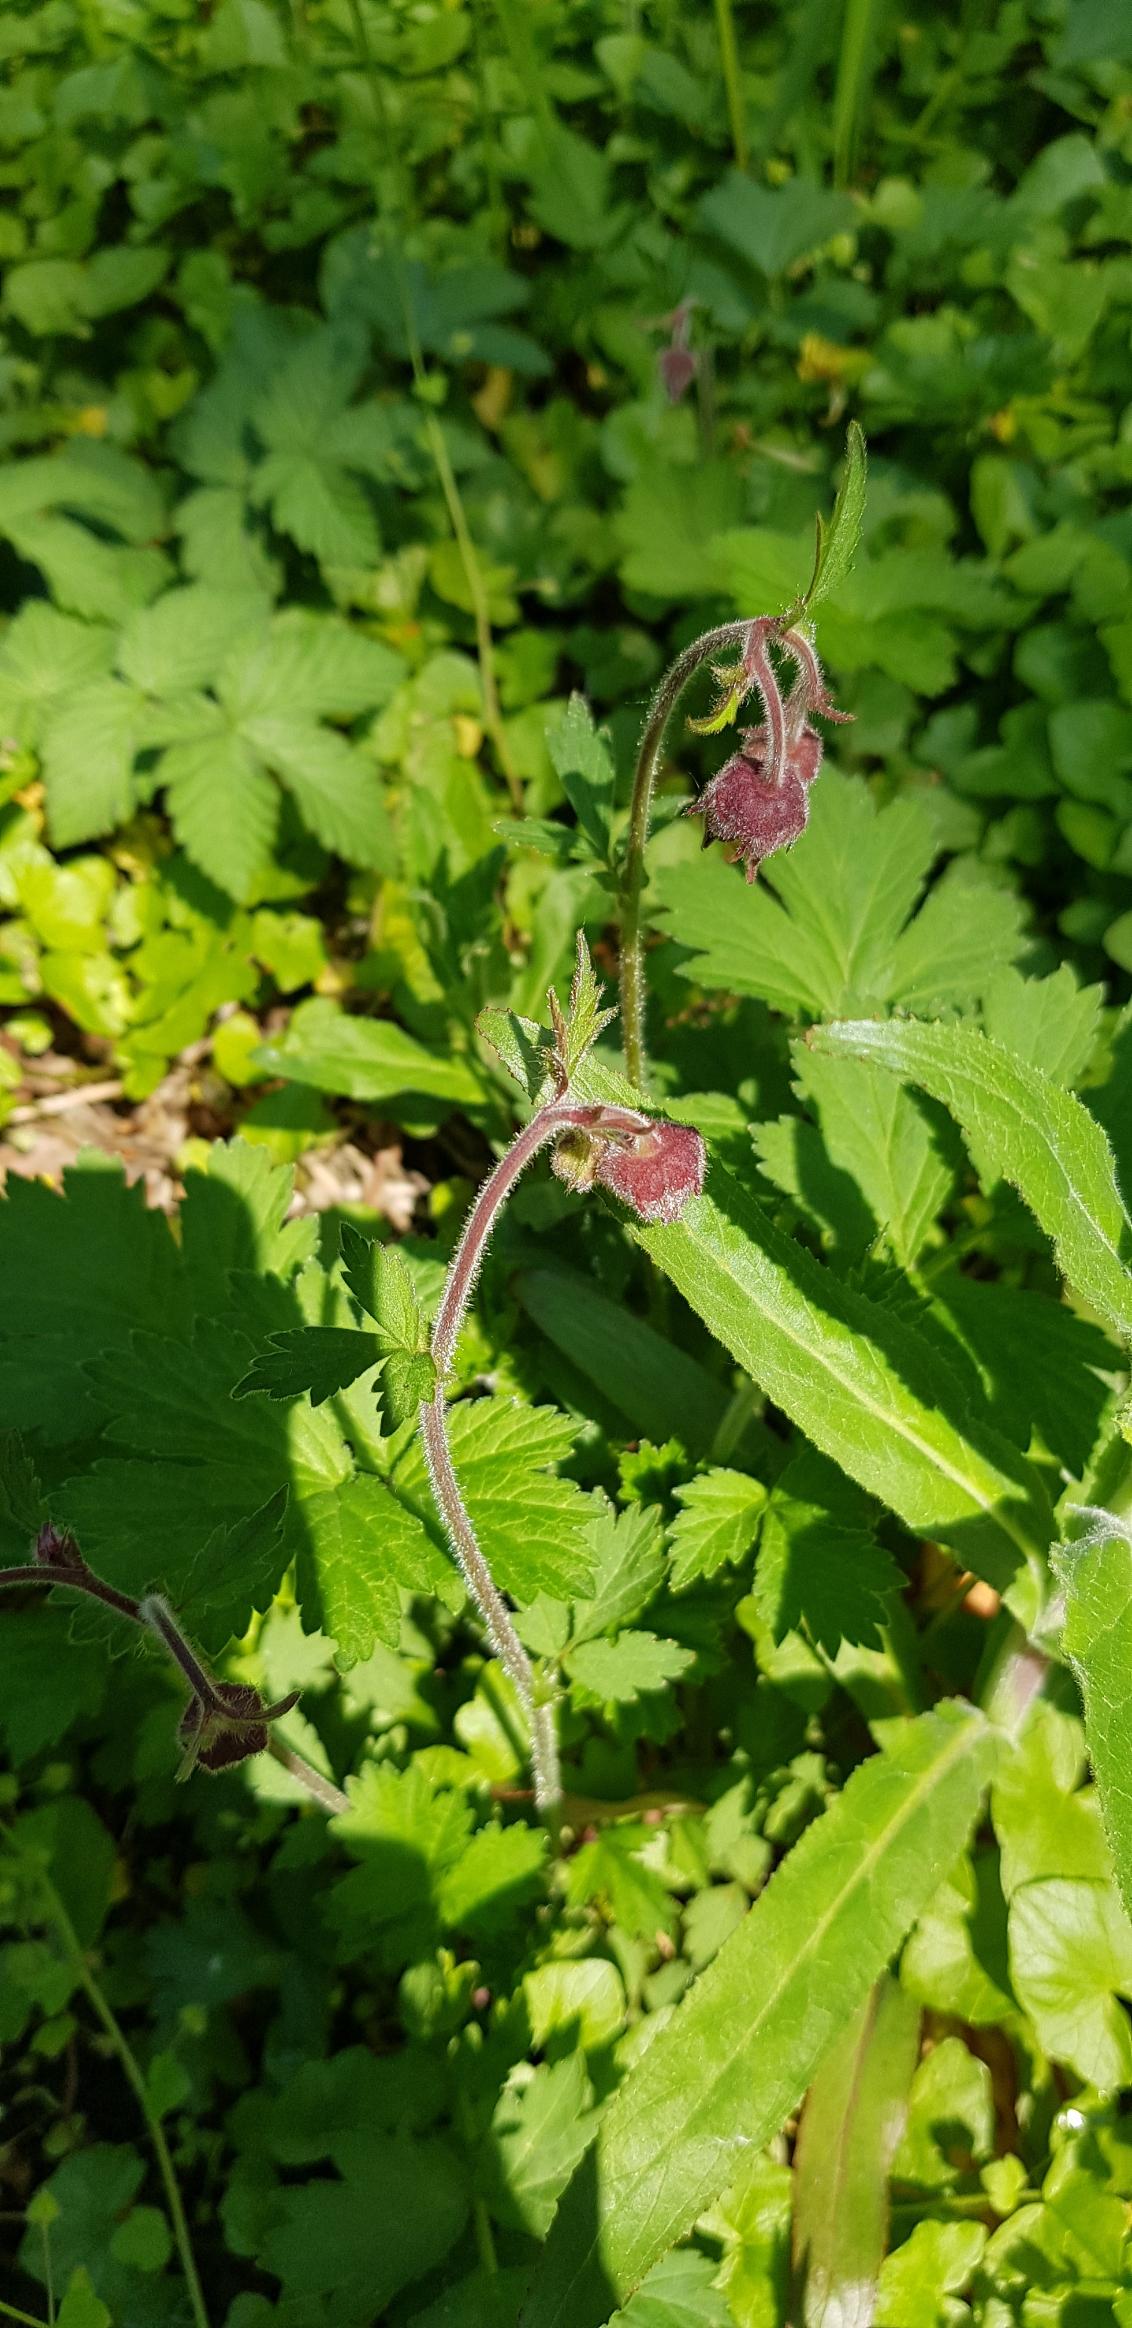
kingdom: Plantae
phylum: Tracheophyta
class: Magnoliopsida
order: Rosales
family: Rosaceae
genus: Geum
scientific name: Geum rivale
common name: Eng-nellikerod
